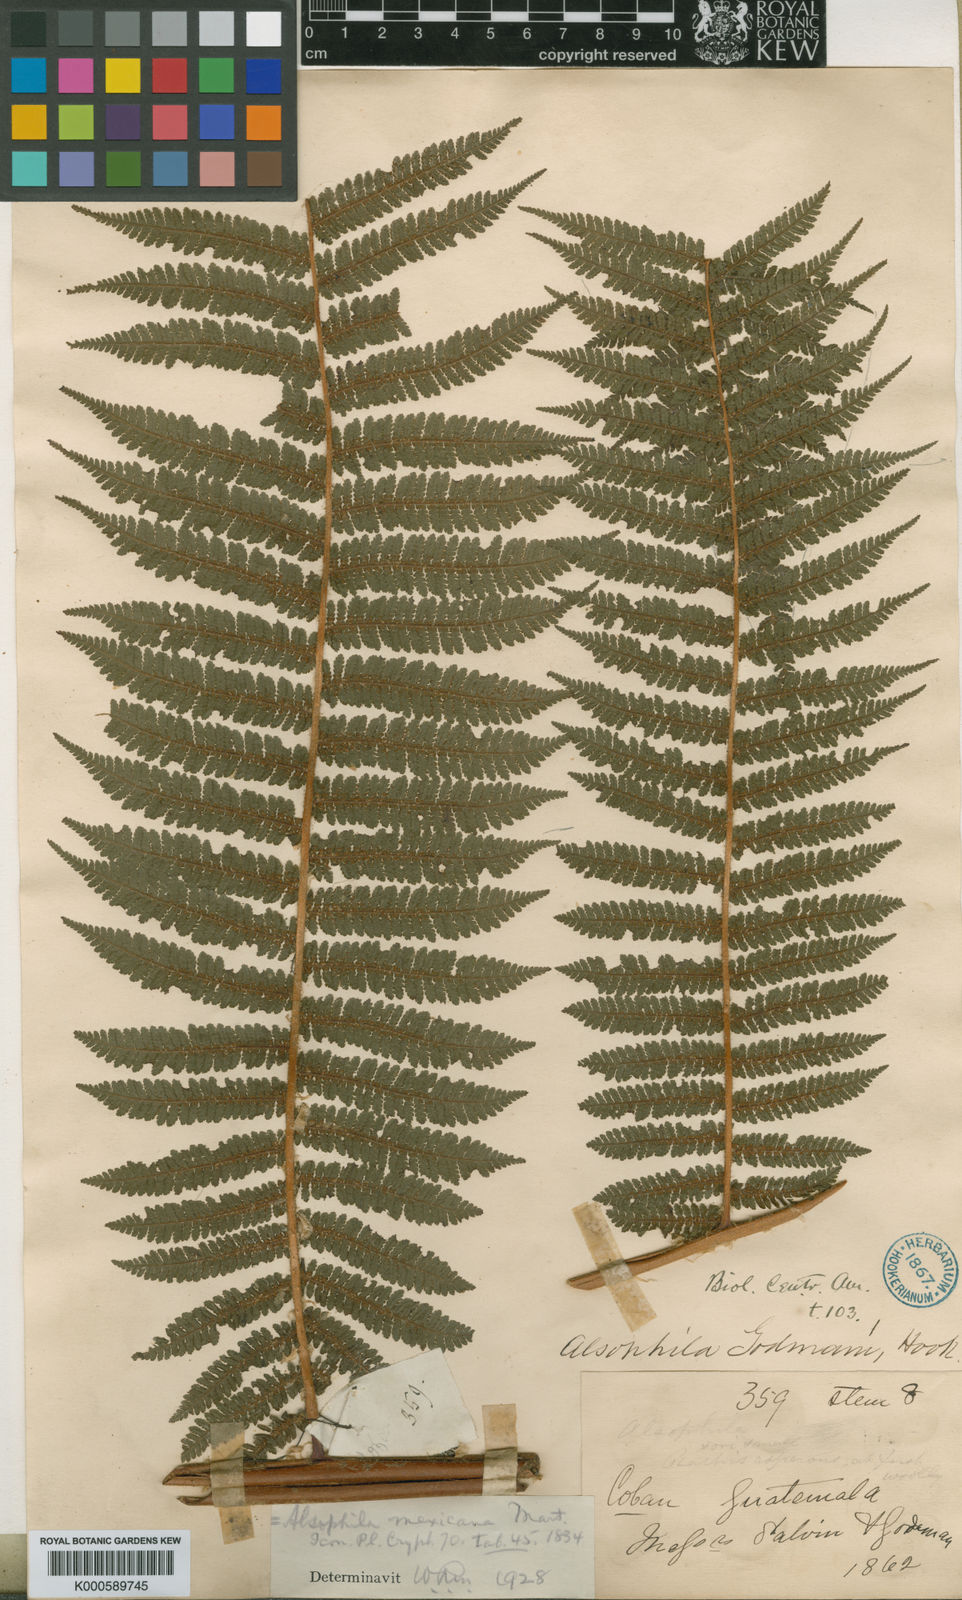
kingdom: Plantae
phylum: Tracheophyta
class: Polypodiopsida
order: Cyatheales
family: Cyatheaceae
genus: Alsophila
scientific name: Alsophila firma
